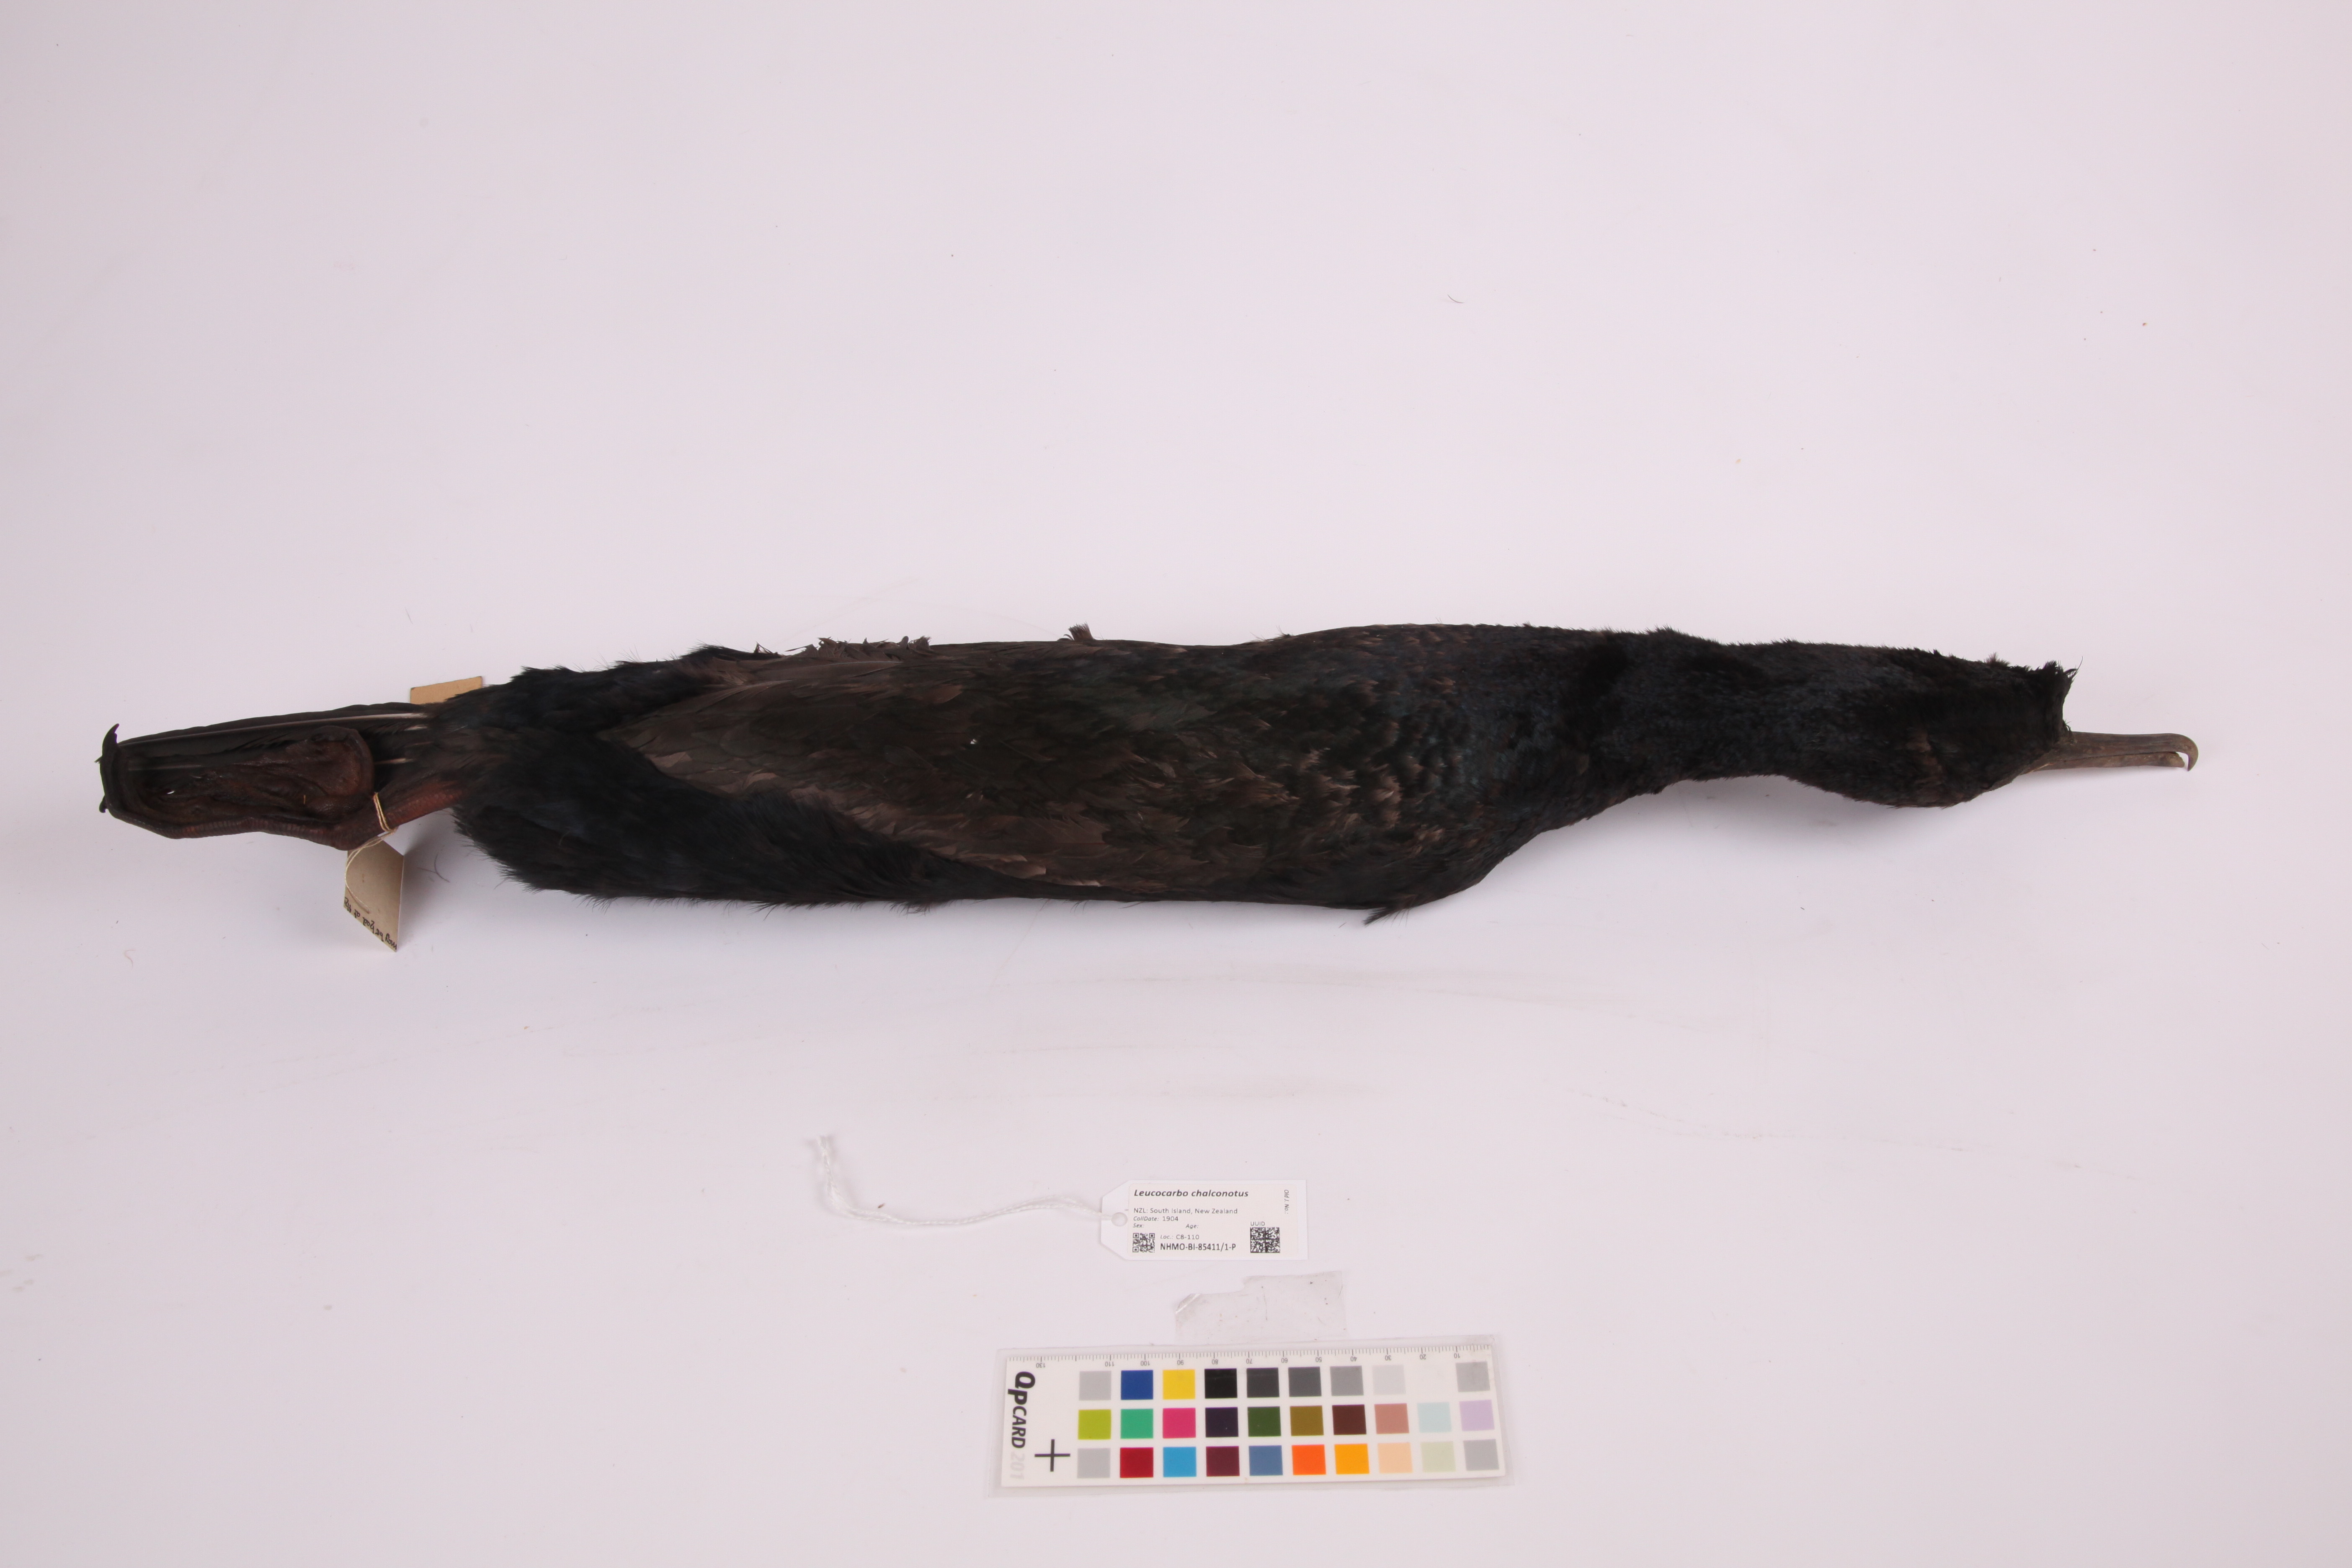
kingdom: Animalia
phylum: Chordata
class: Aves
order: Suliformes
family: Phalacrocoracidae
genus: Leucocarbo
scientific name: Leucocarbo chalconotus
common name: Stewart shag
